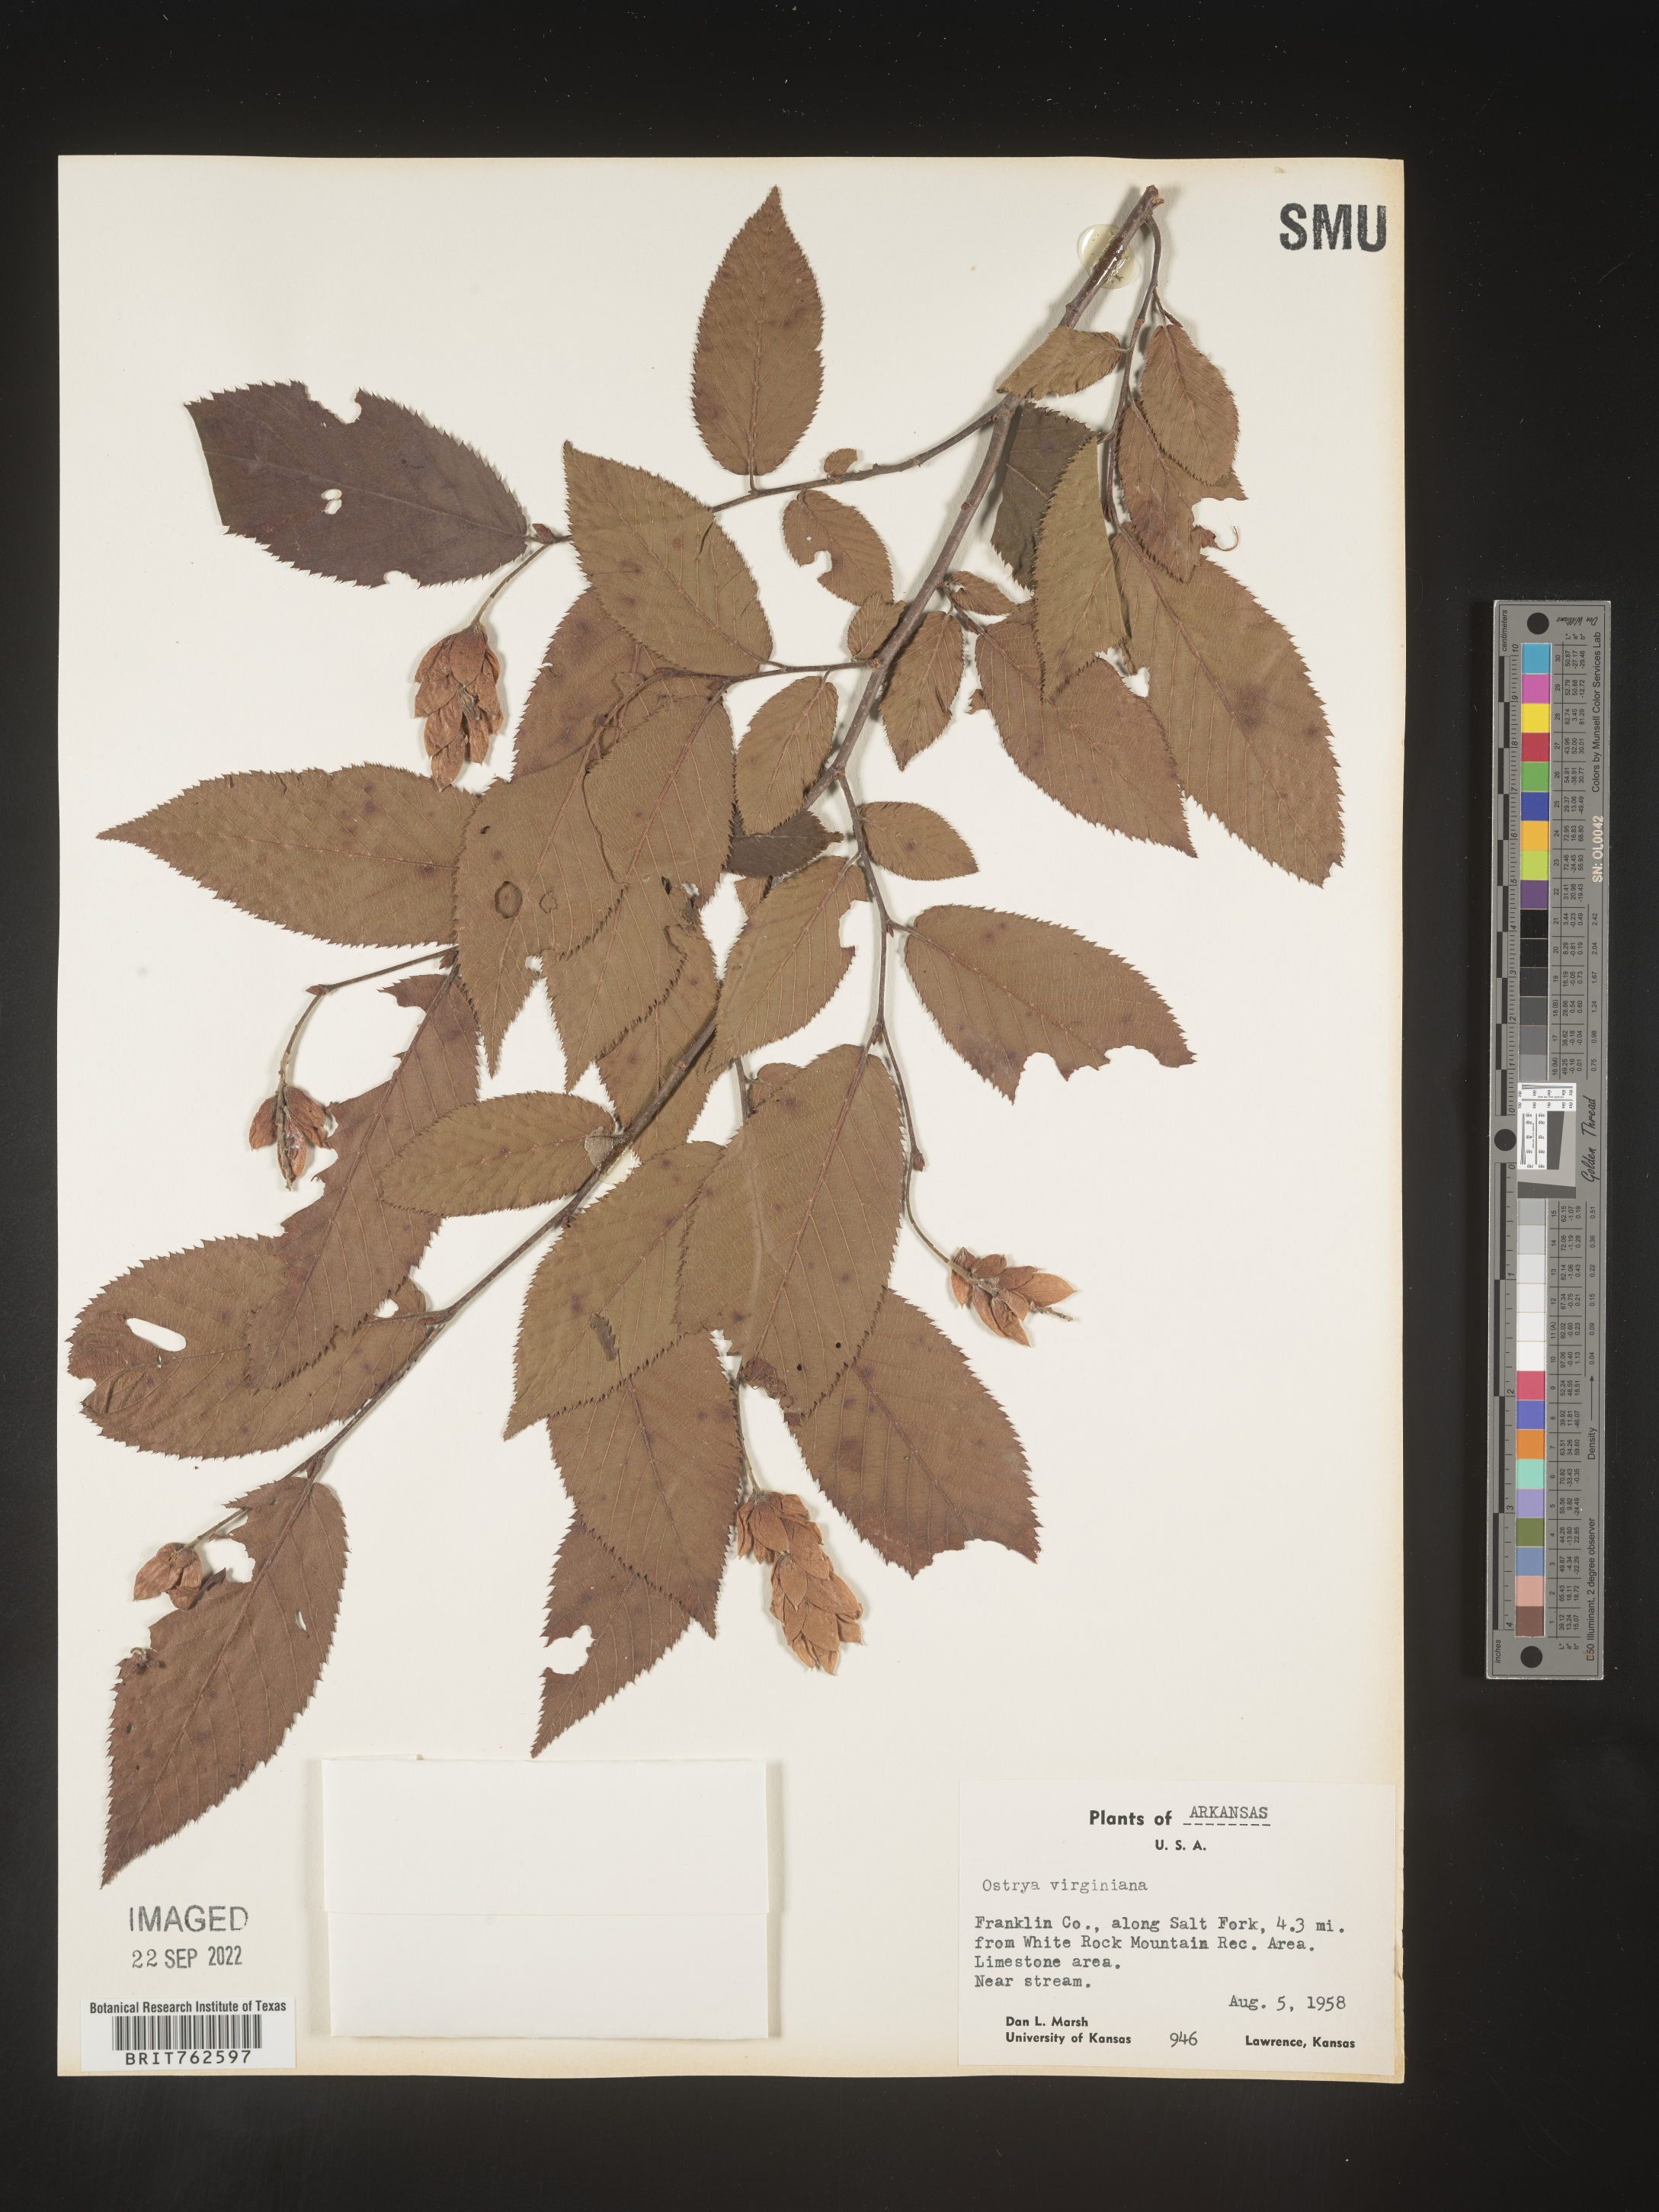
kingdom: Plantae
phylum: Tracheophyta
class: Magnoliopsida
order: Fagales
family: Betulaceae
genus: Ostrya
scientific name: Ostrya virginiana
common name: Ironwood
